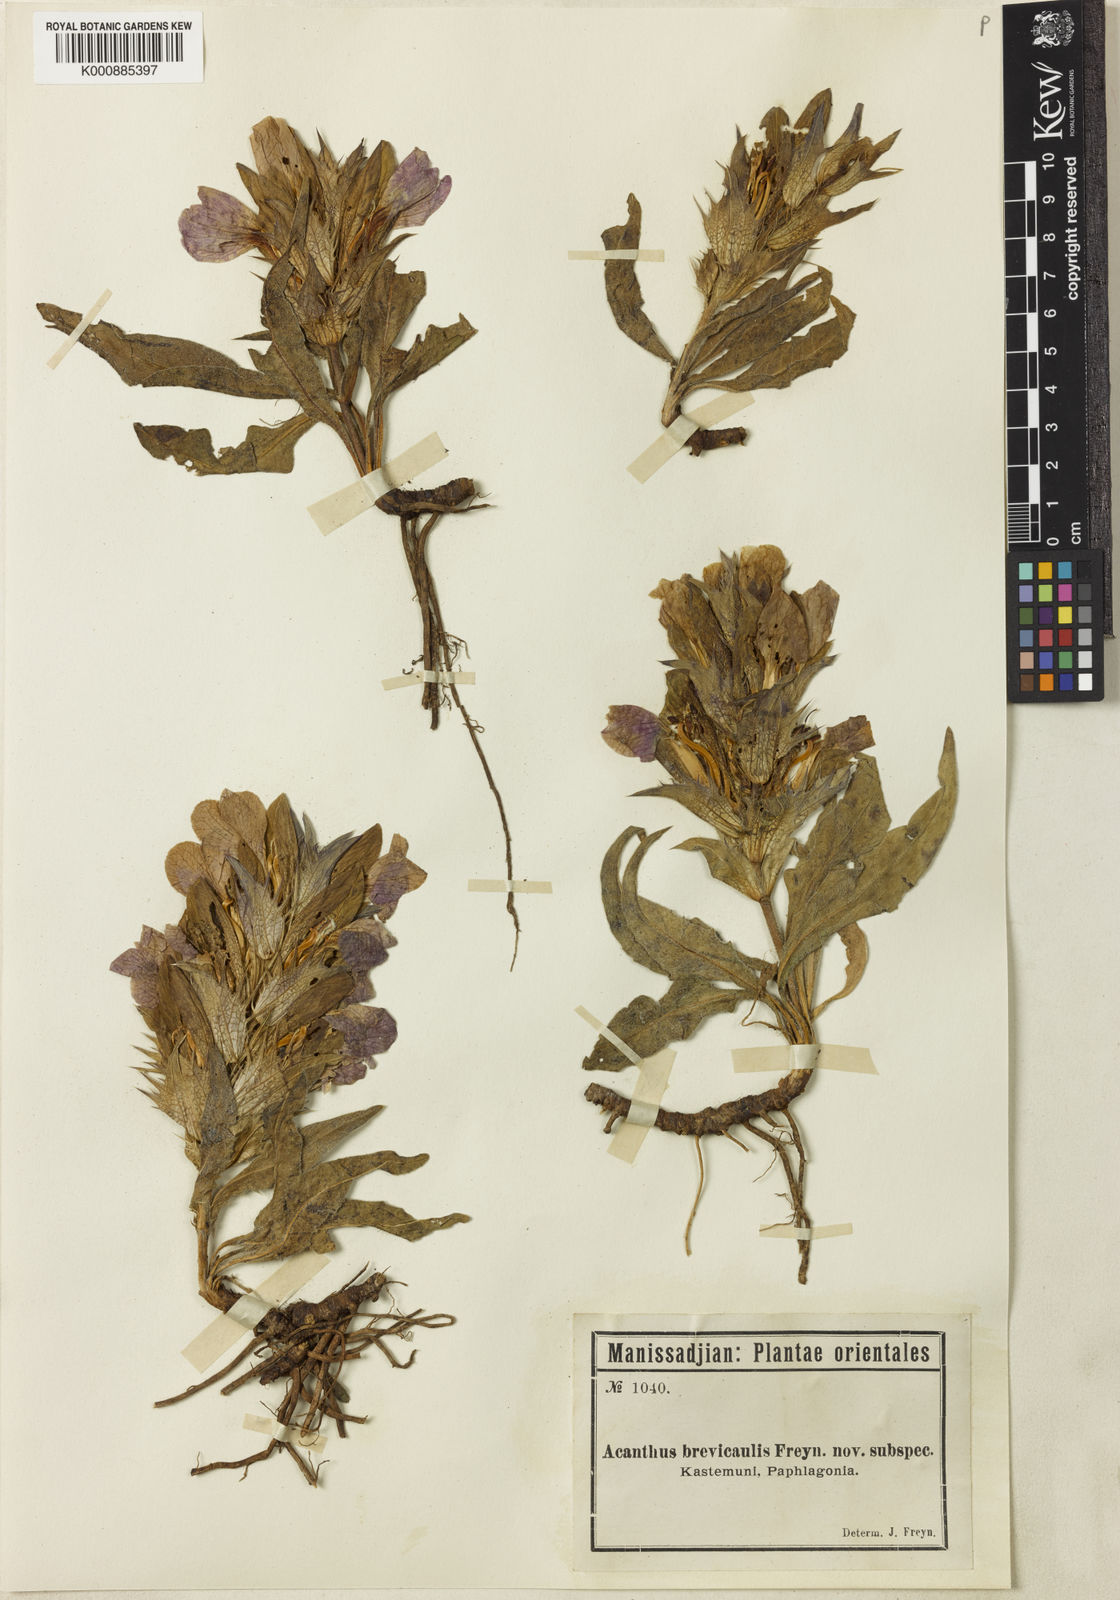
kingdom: Plantae
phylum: Tracheophyta
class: Magnoliopsida
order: Lamiales
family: Acanthaceae
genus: Acanthus
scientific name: Acanthus dioscoridis
